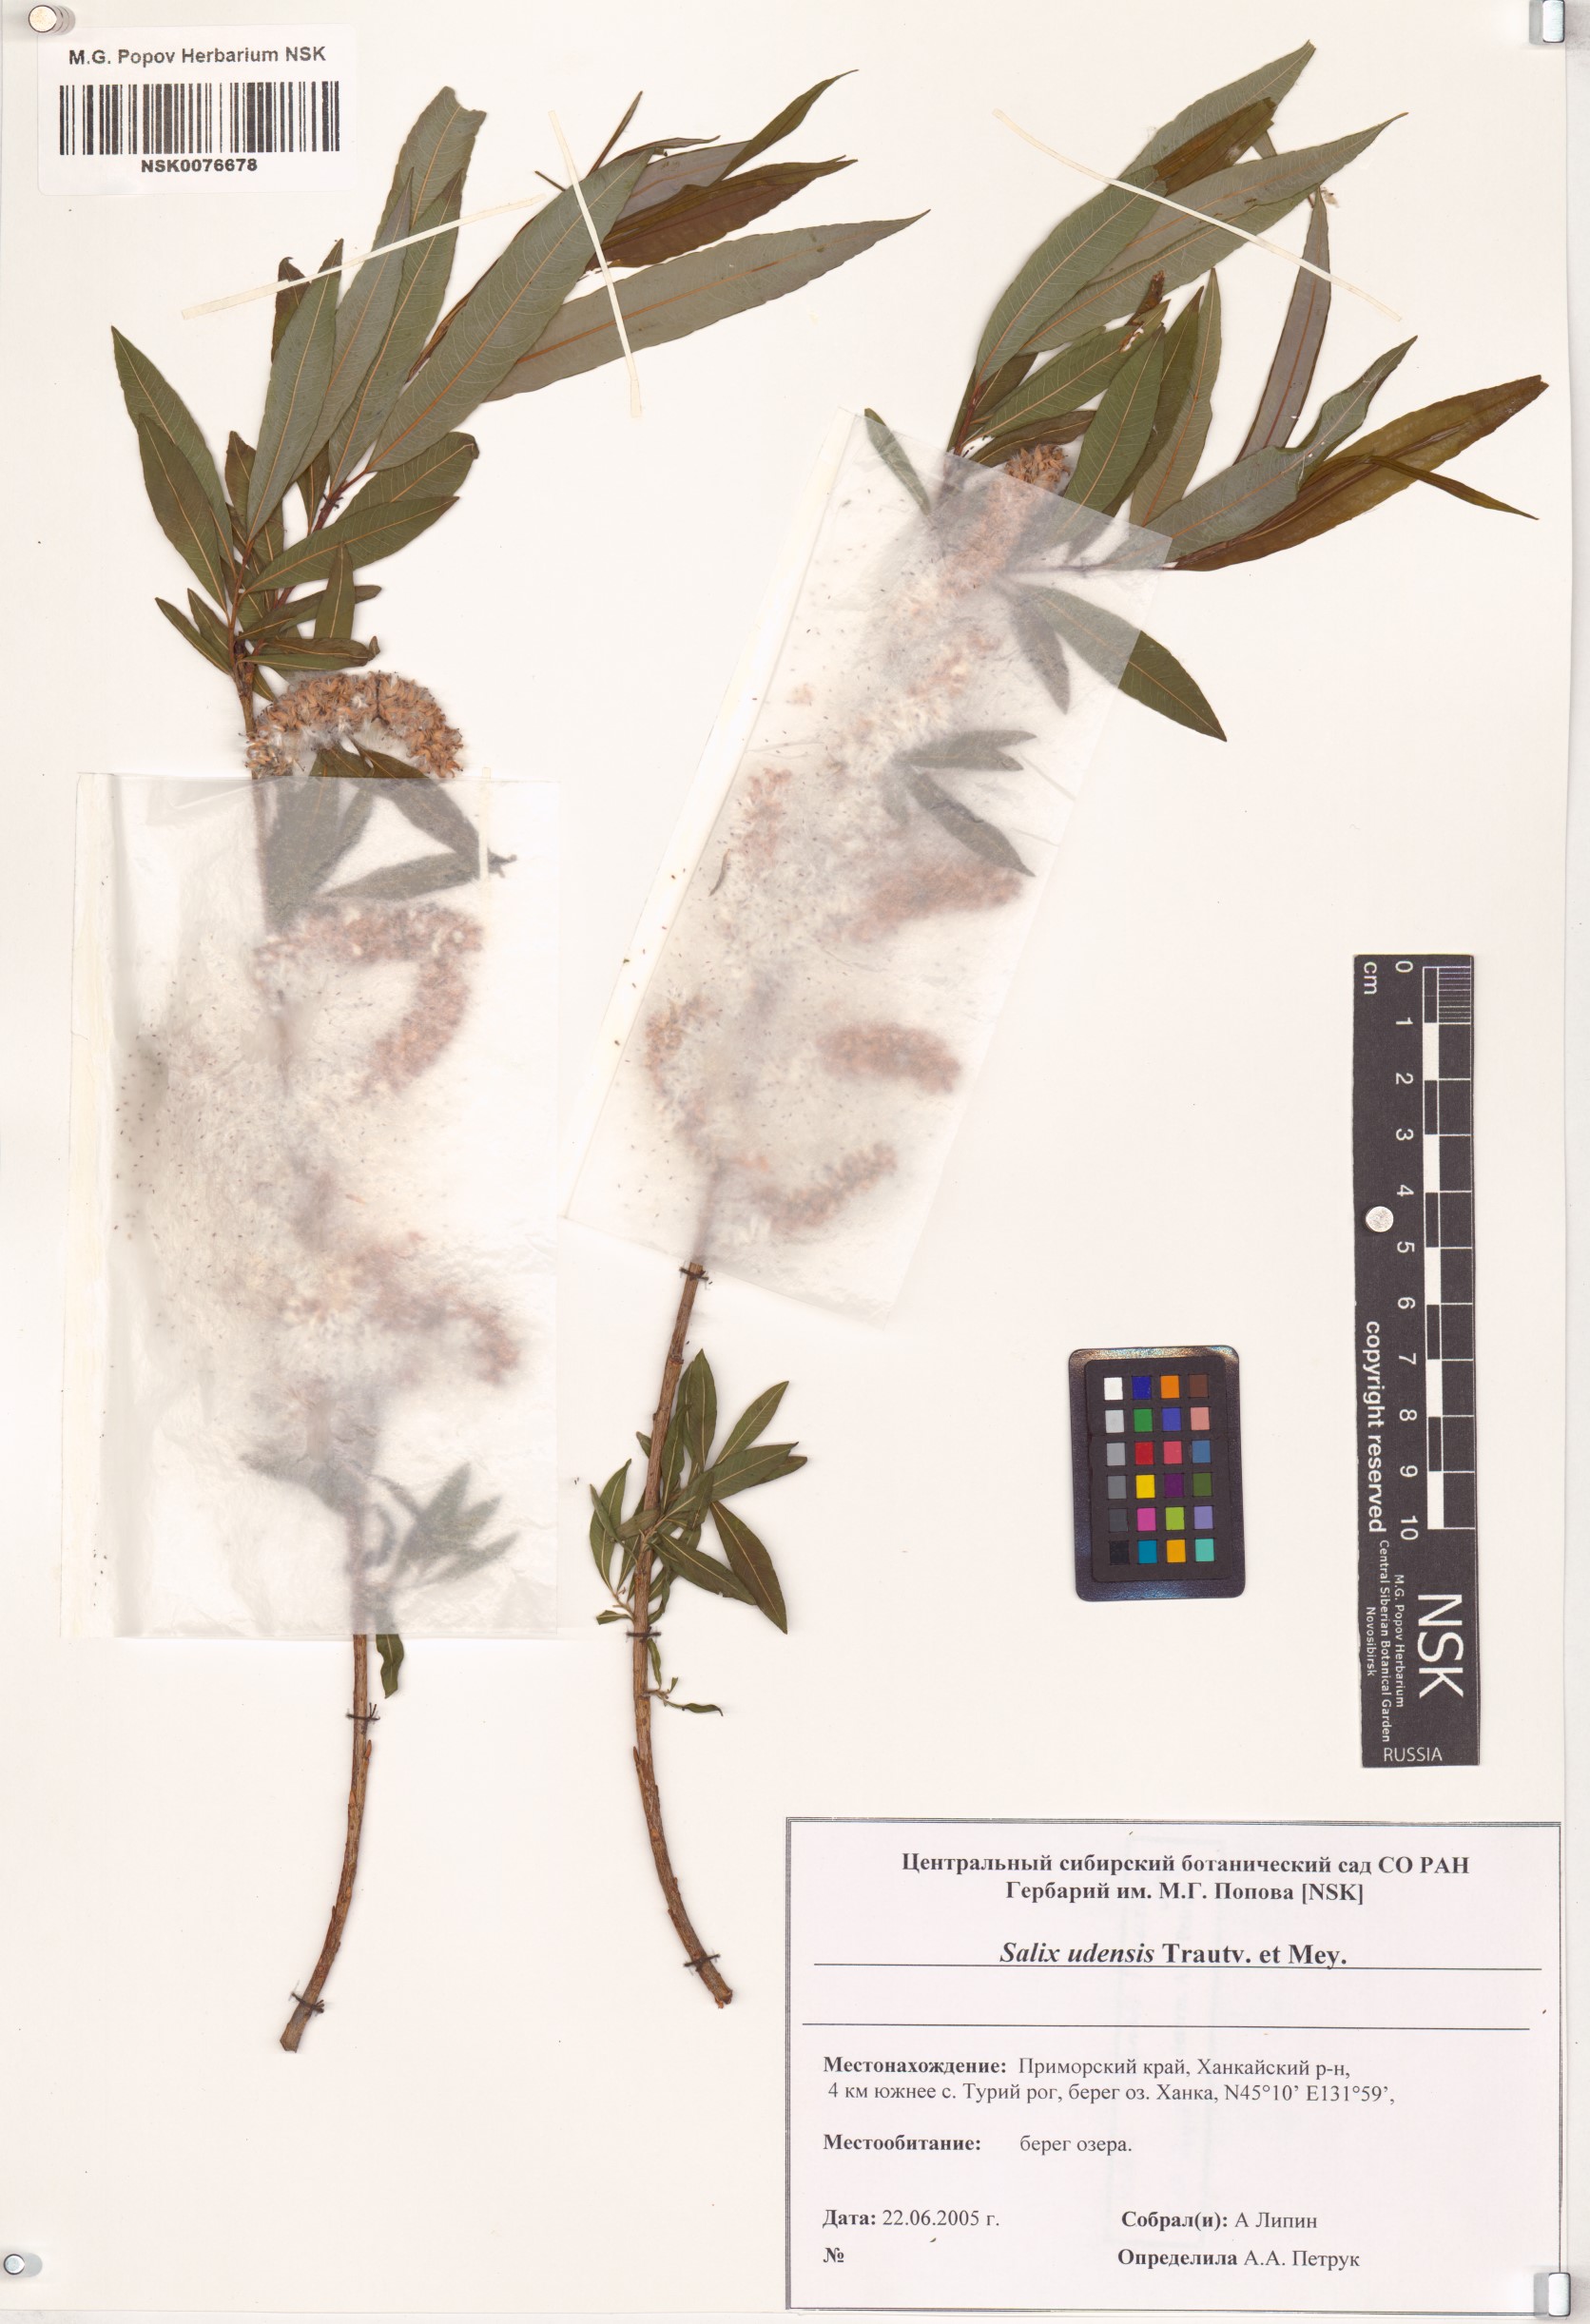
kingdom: Plantae
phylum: Tracheophyta
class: Magnoliopsida
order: Malpighiales
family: Salicaceae
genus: Salix
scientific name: Salix udensis
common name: Sachalin willow
